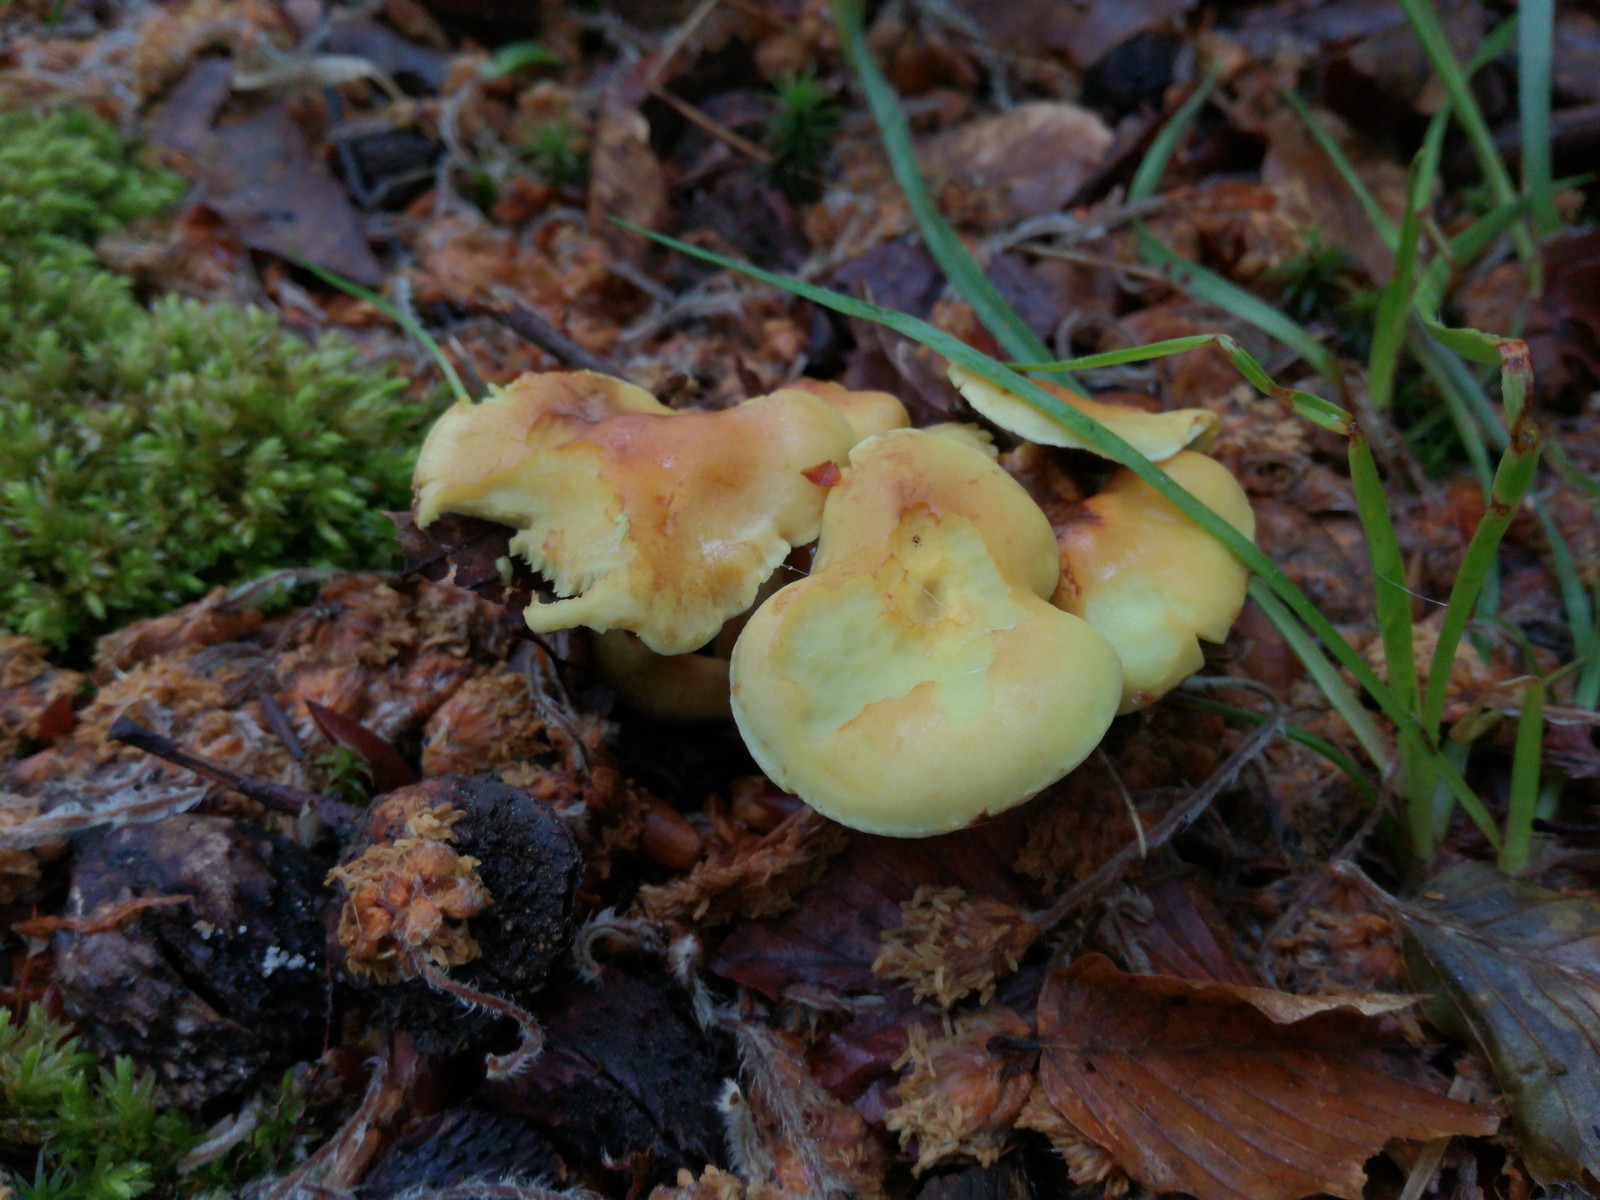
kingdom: Fungi
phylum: Basidiomycota
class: Agaricomycetes
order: Agaricales
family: Strophariaceae
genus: Hypholoma
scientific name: Hypholoma fasciculare
